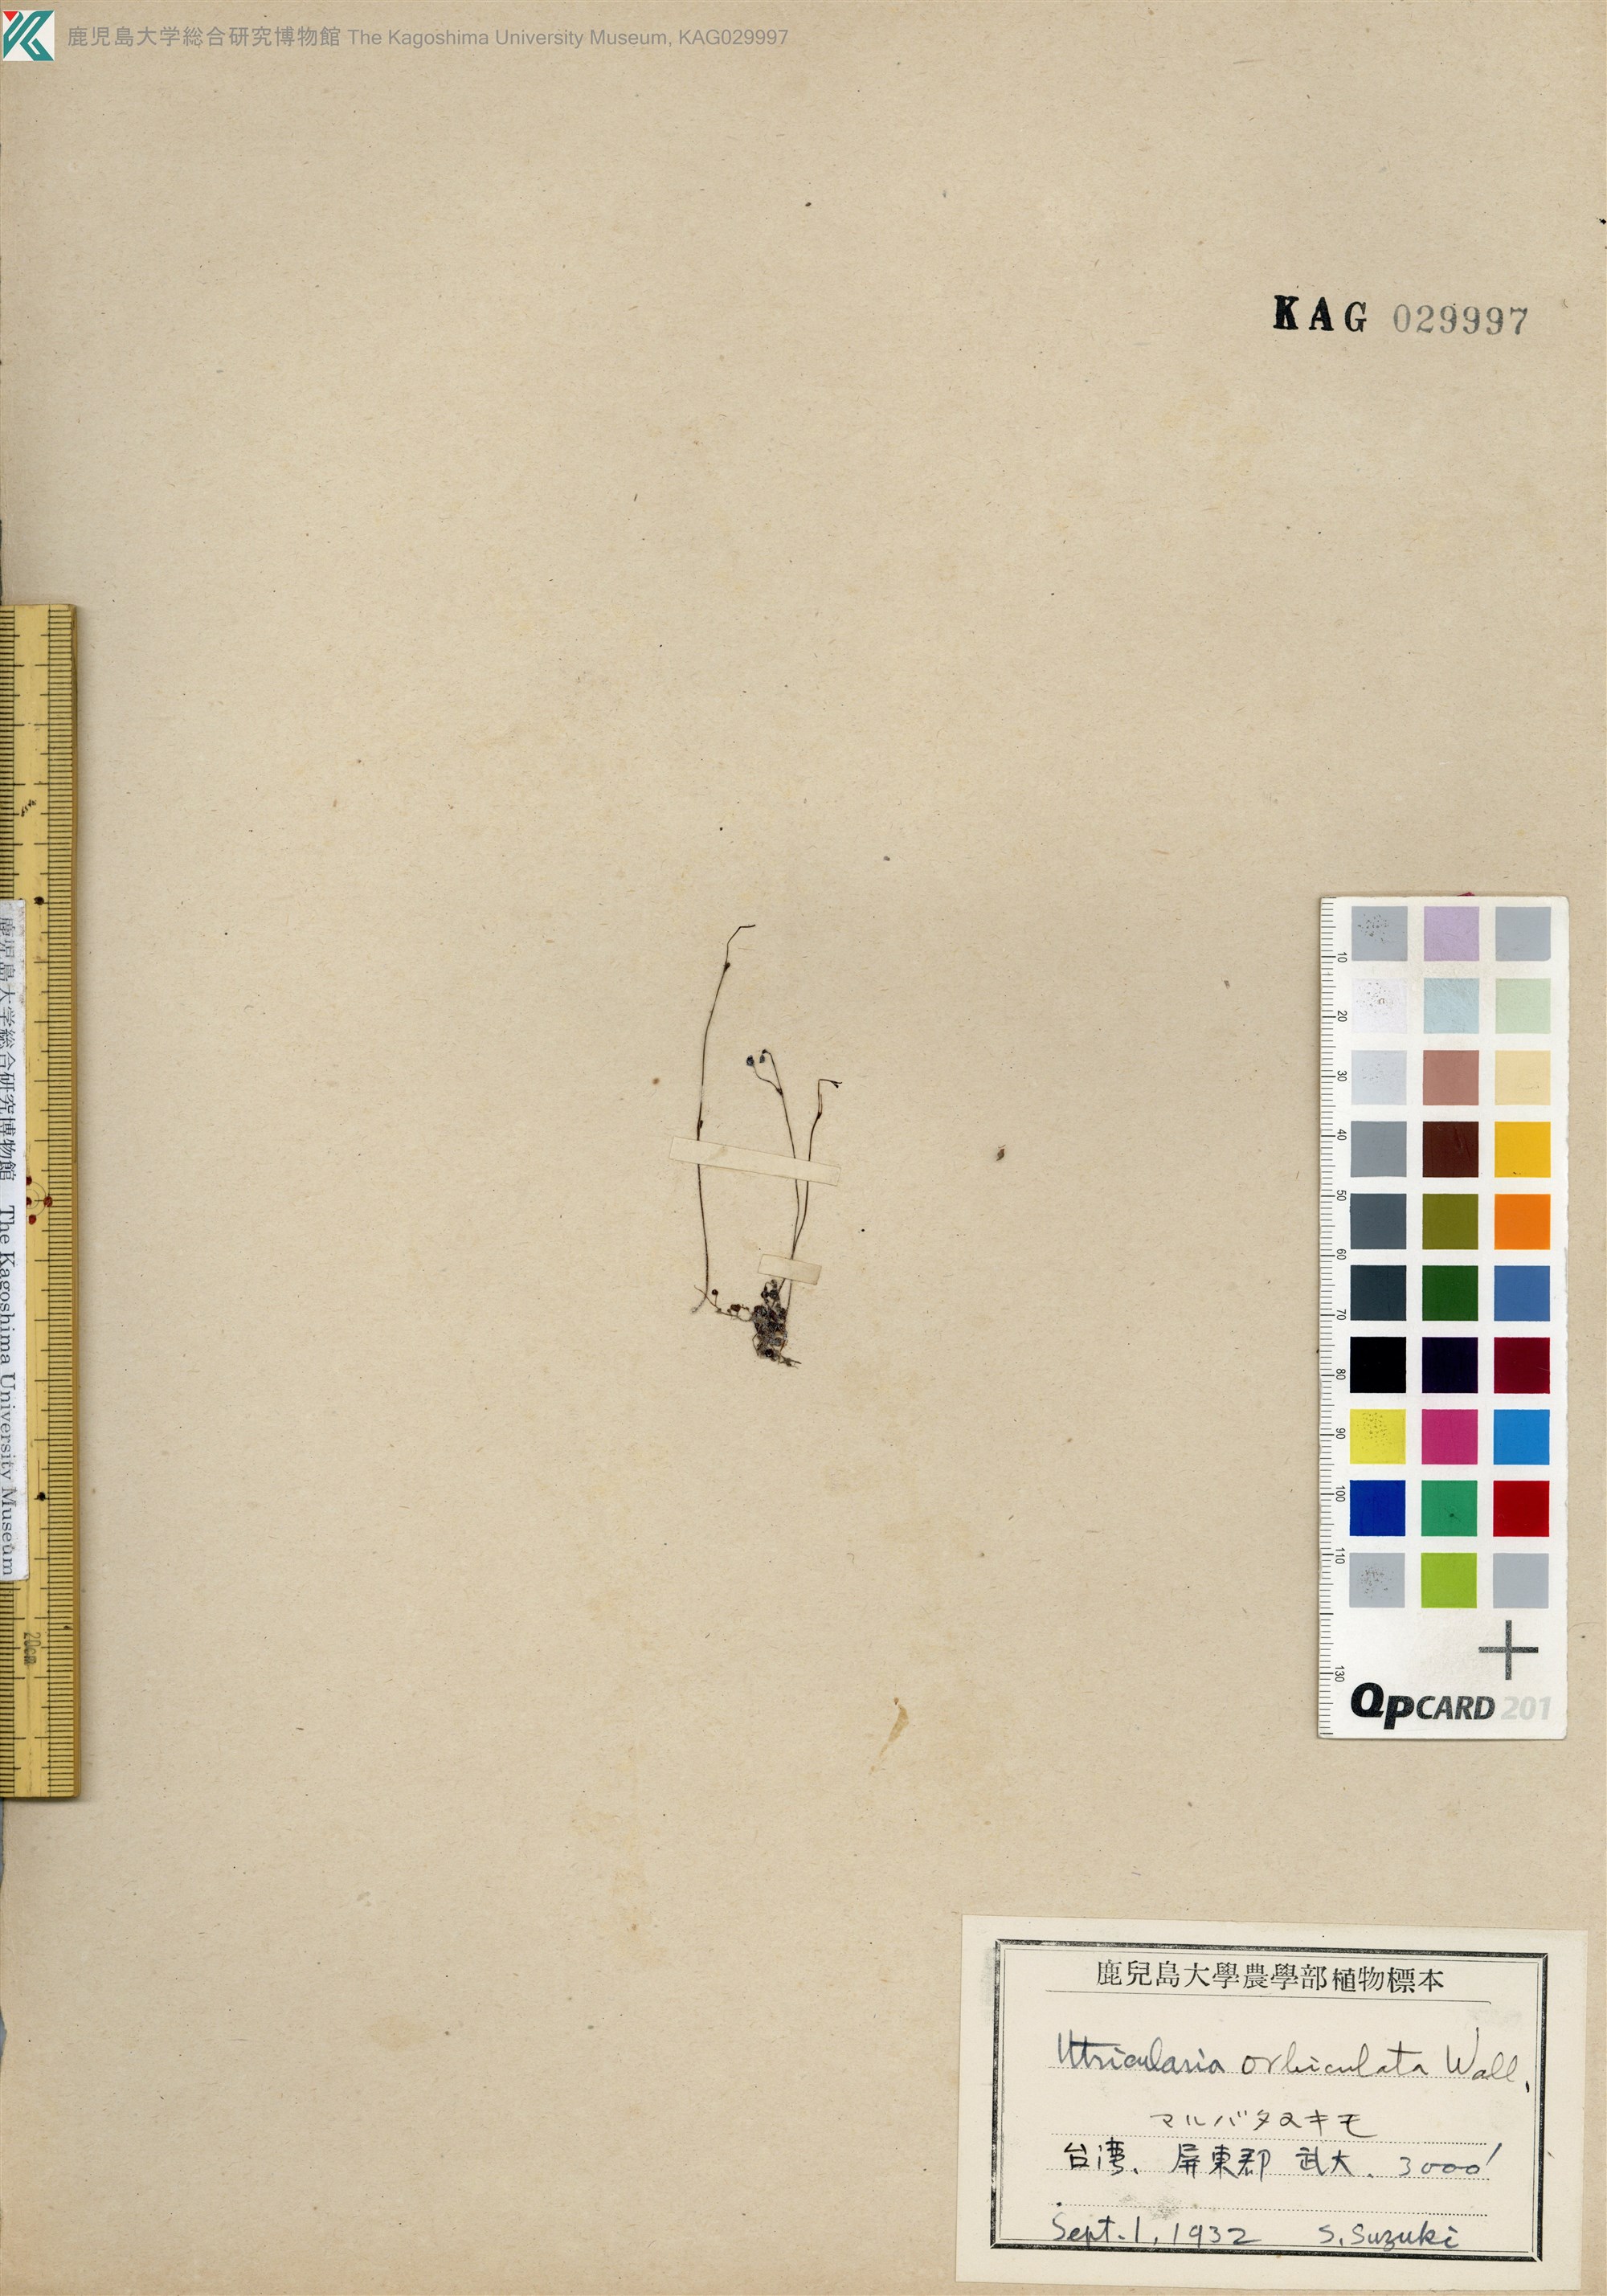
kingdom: Plantae
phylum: Tracheophyta
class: Magnoliopsida
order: Lamiales
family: Lentibulariaceae
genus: Utricularia
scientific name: Utricularia orbiculata
